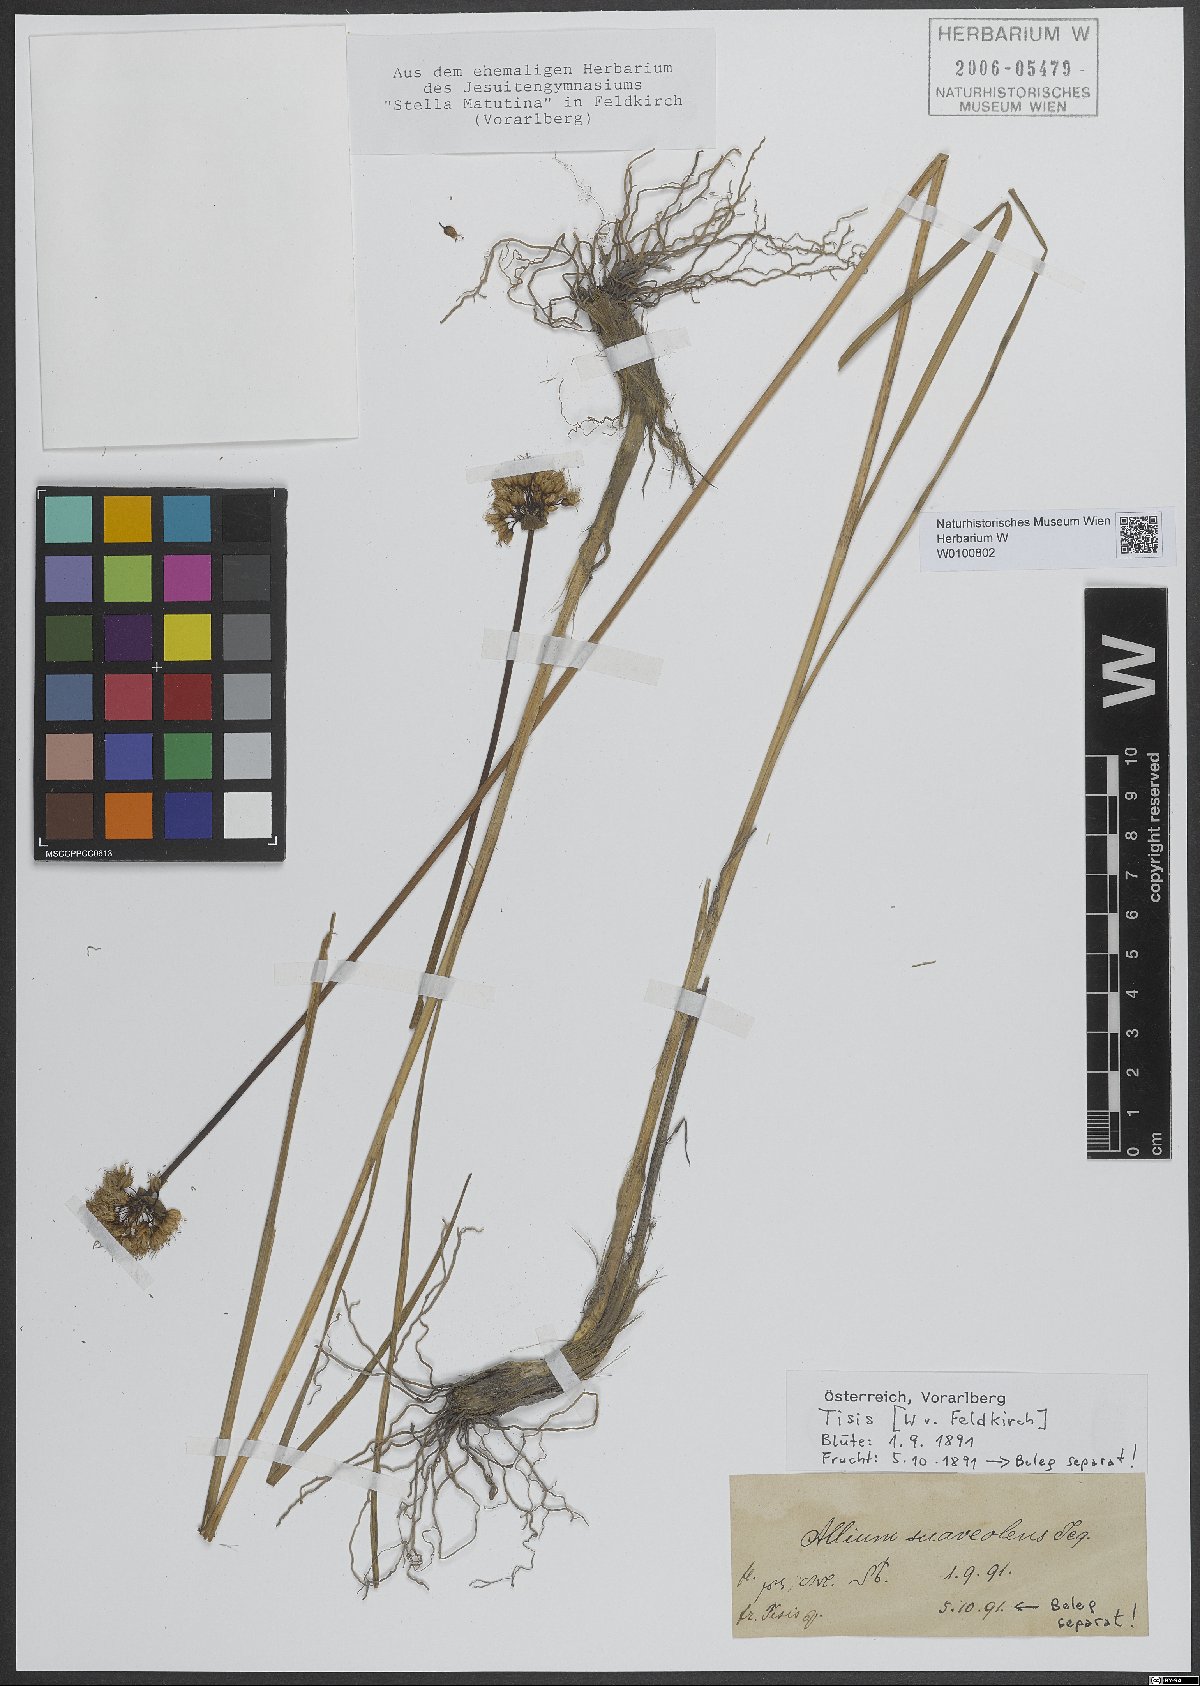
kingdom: Plantae
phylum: Tracheophyta
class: Liliopsida
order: Asparagales
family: Amaryllidaceae
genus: Allium
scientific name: Allium suaveolens
